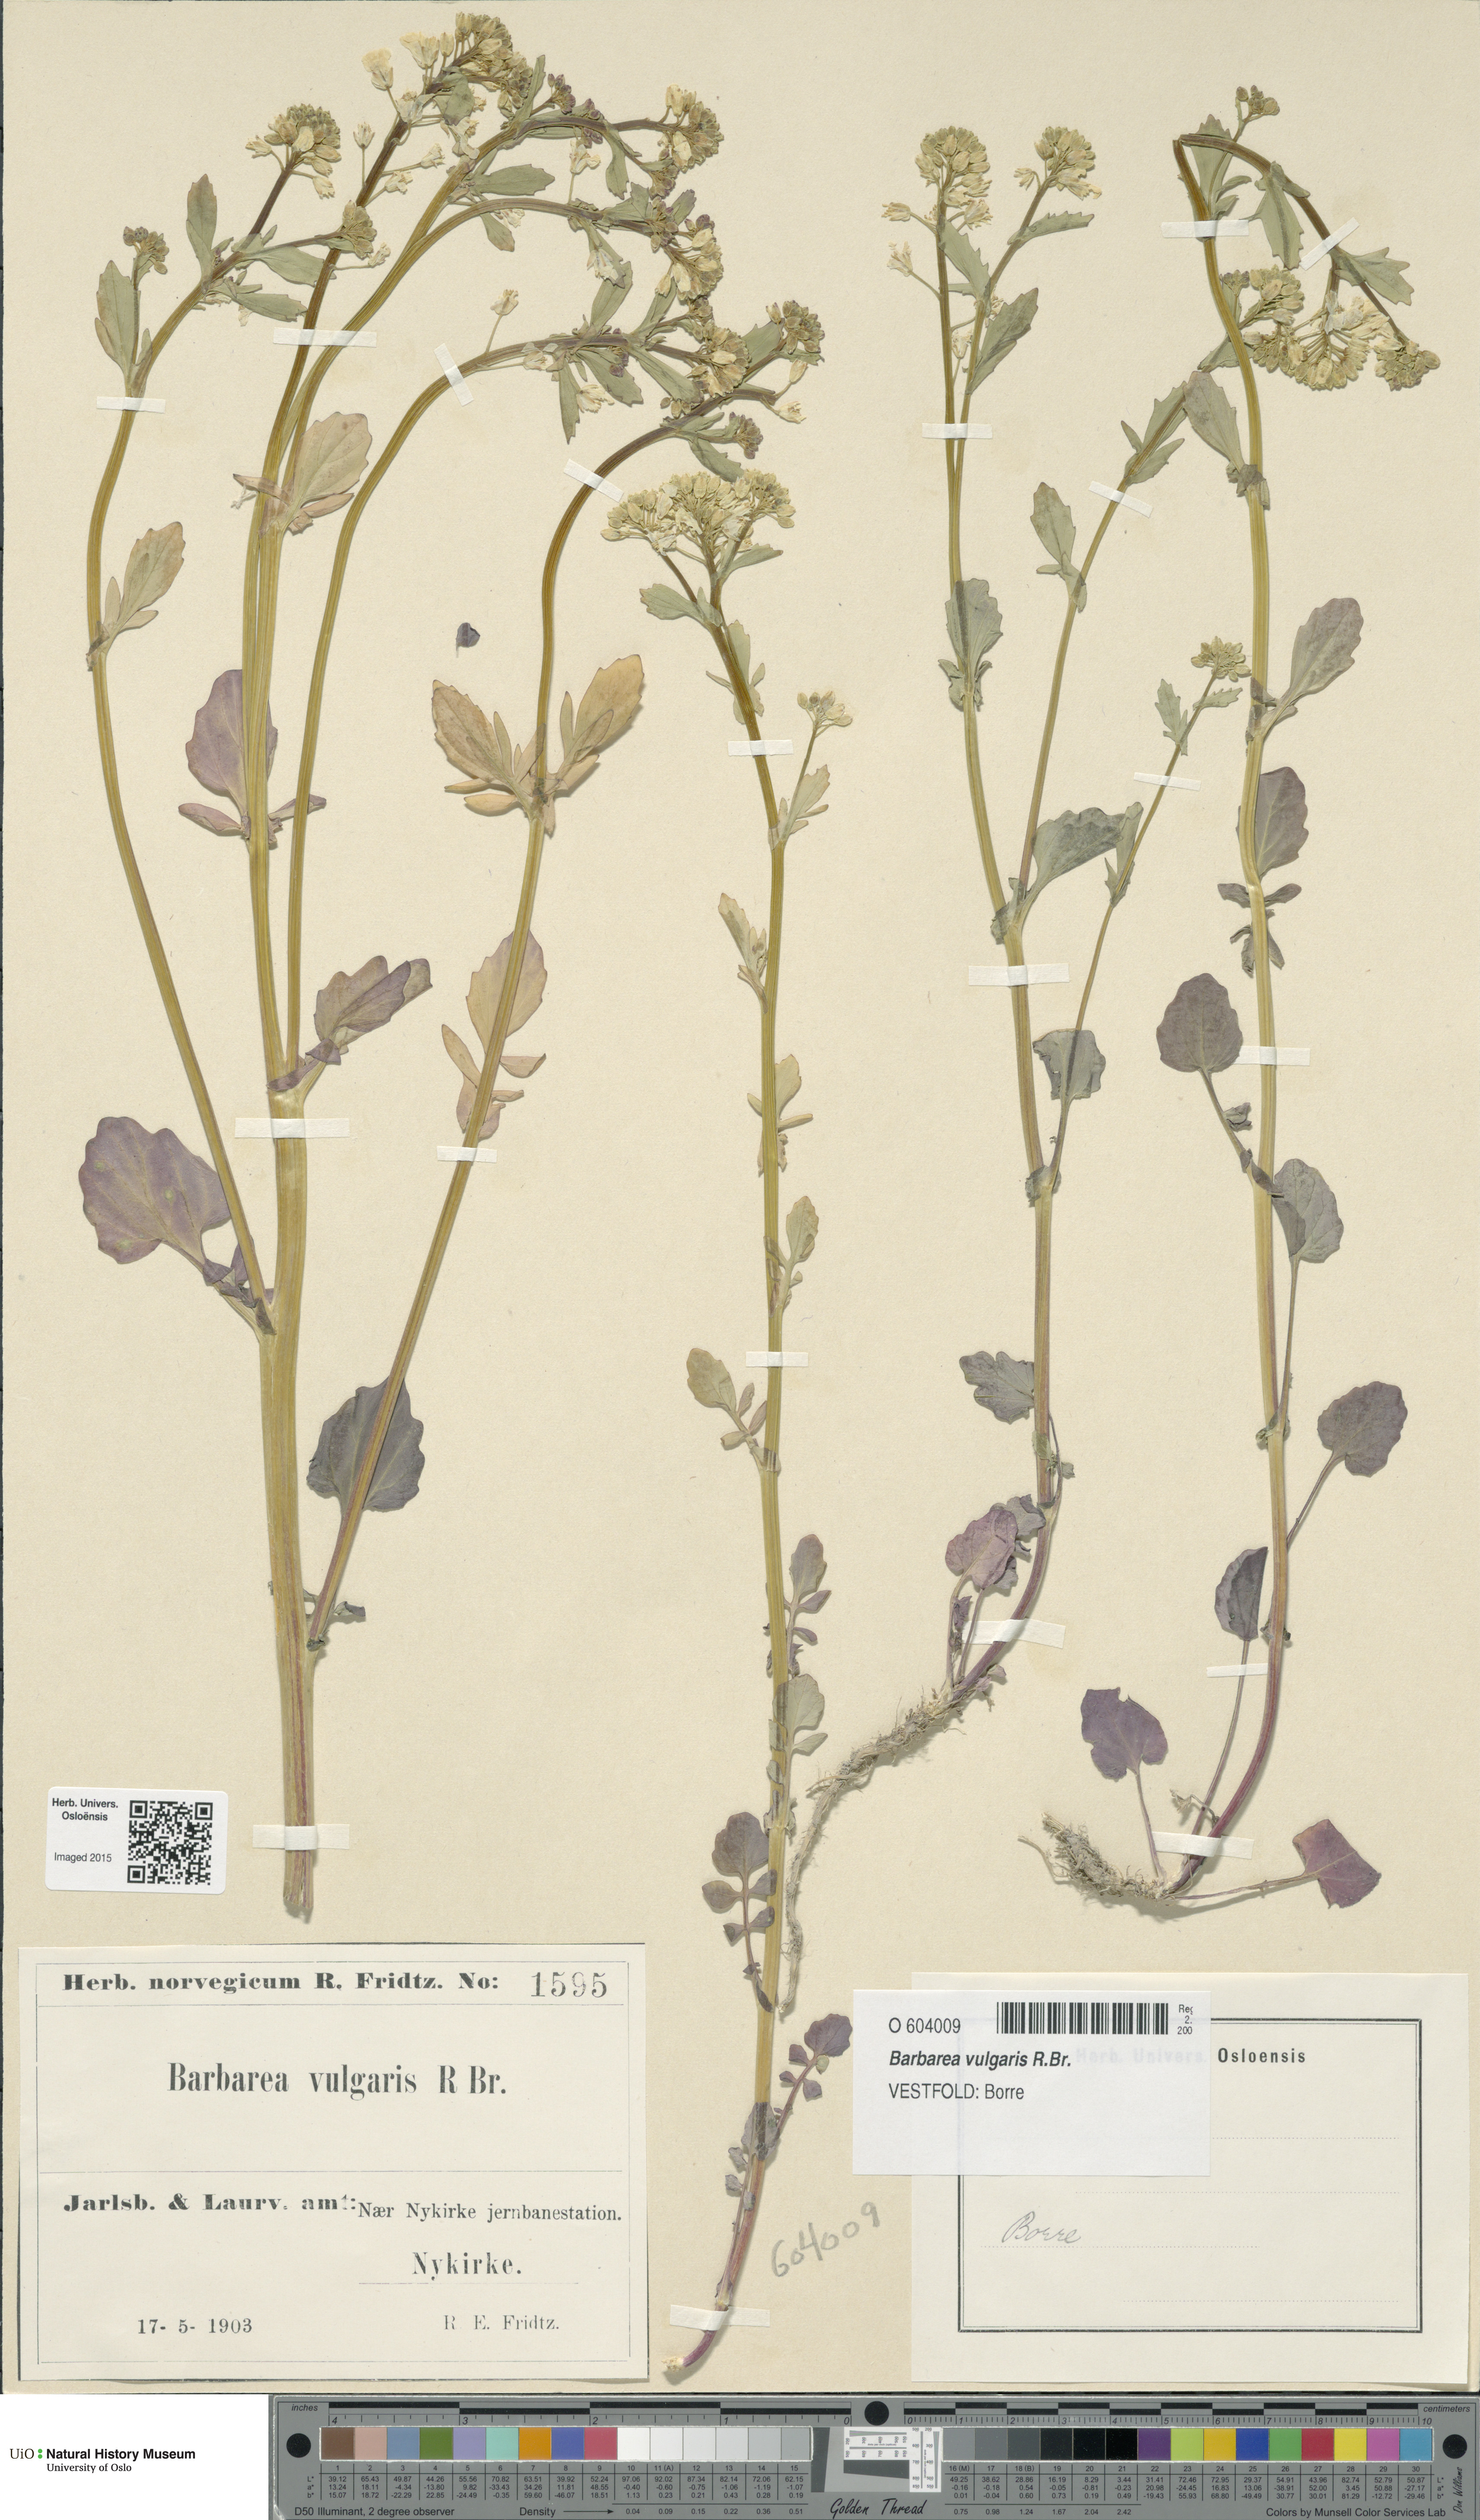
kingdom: Plantae
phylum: Tracheophyta
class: Magnoliopsida
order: Brassicales
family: Brassicaceae
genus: Barbarea
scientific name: Barbarea vulgaris
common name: Cressy-greens
